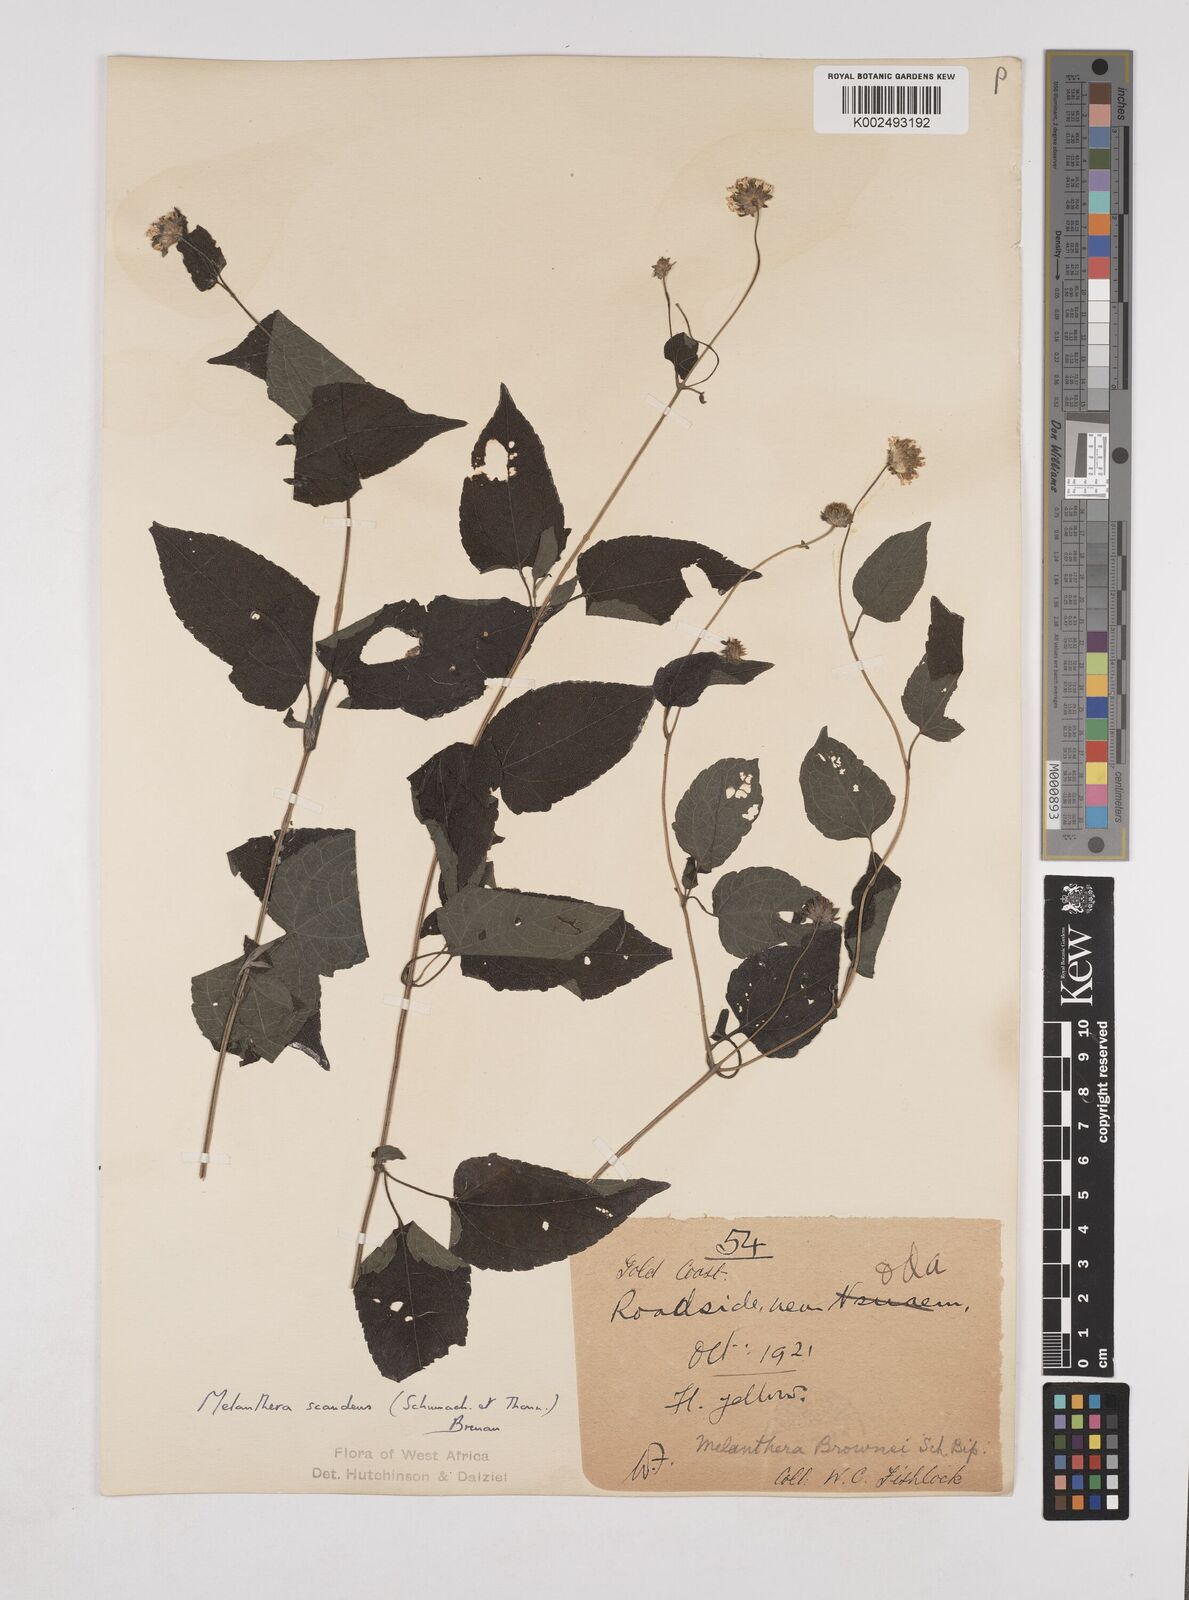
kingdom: Plantae
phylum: Tracheophyta
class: Magnoliopsida
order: Asterales
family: Asteraceae
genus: Lipotriche
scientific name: Lipotriche scandens
